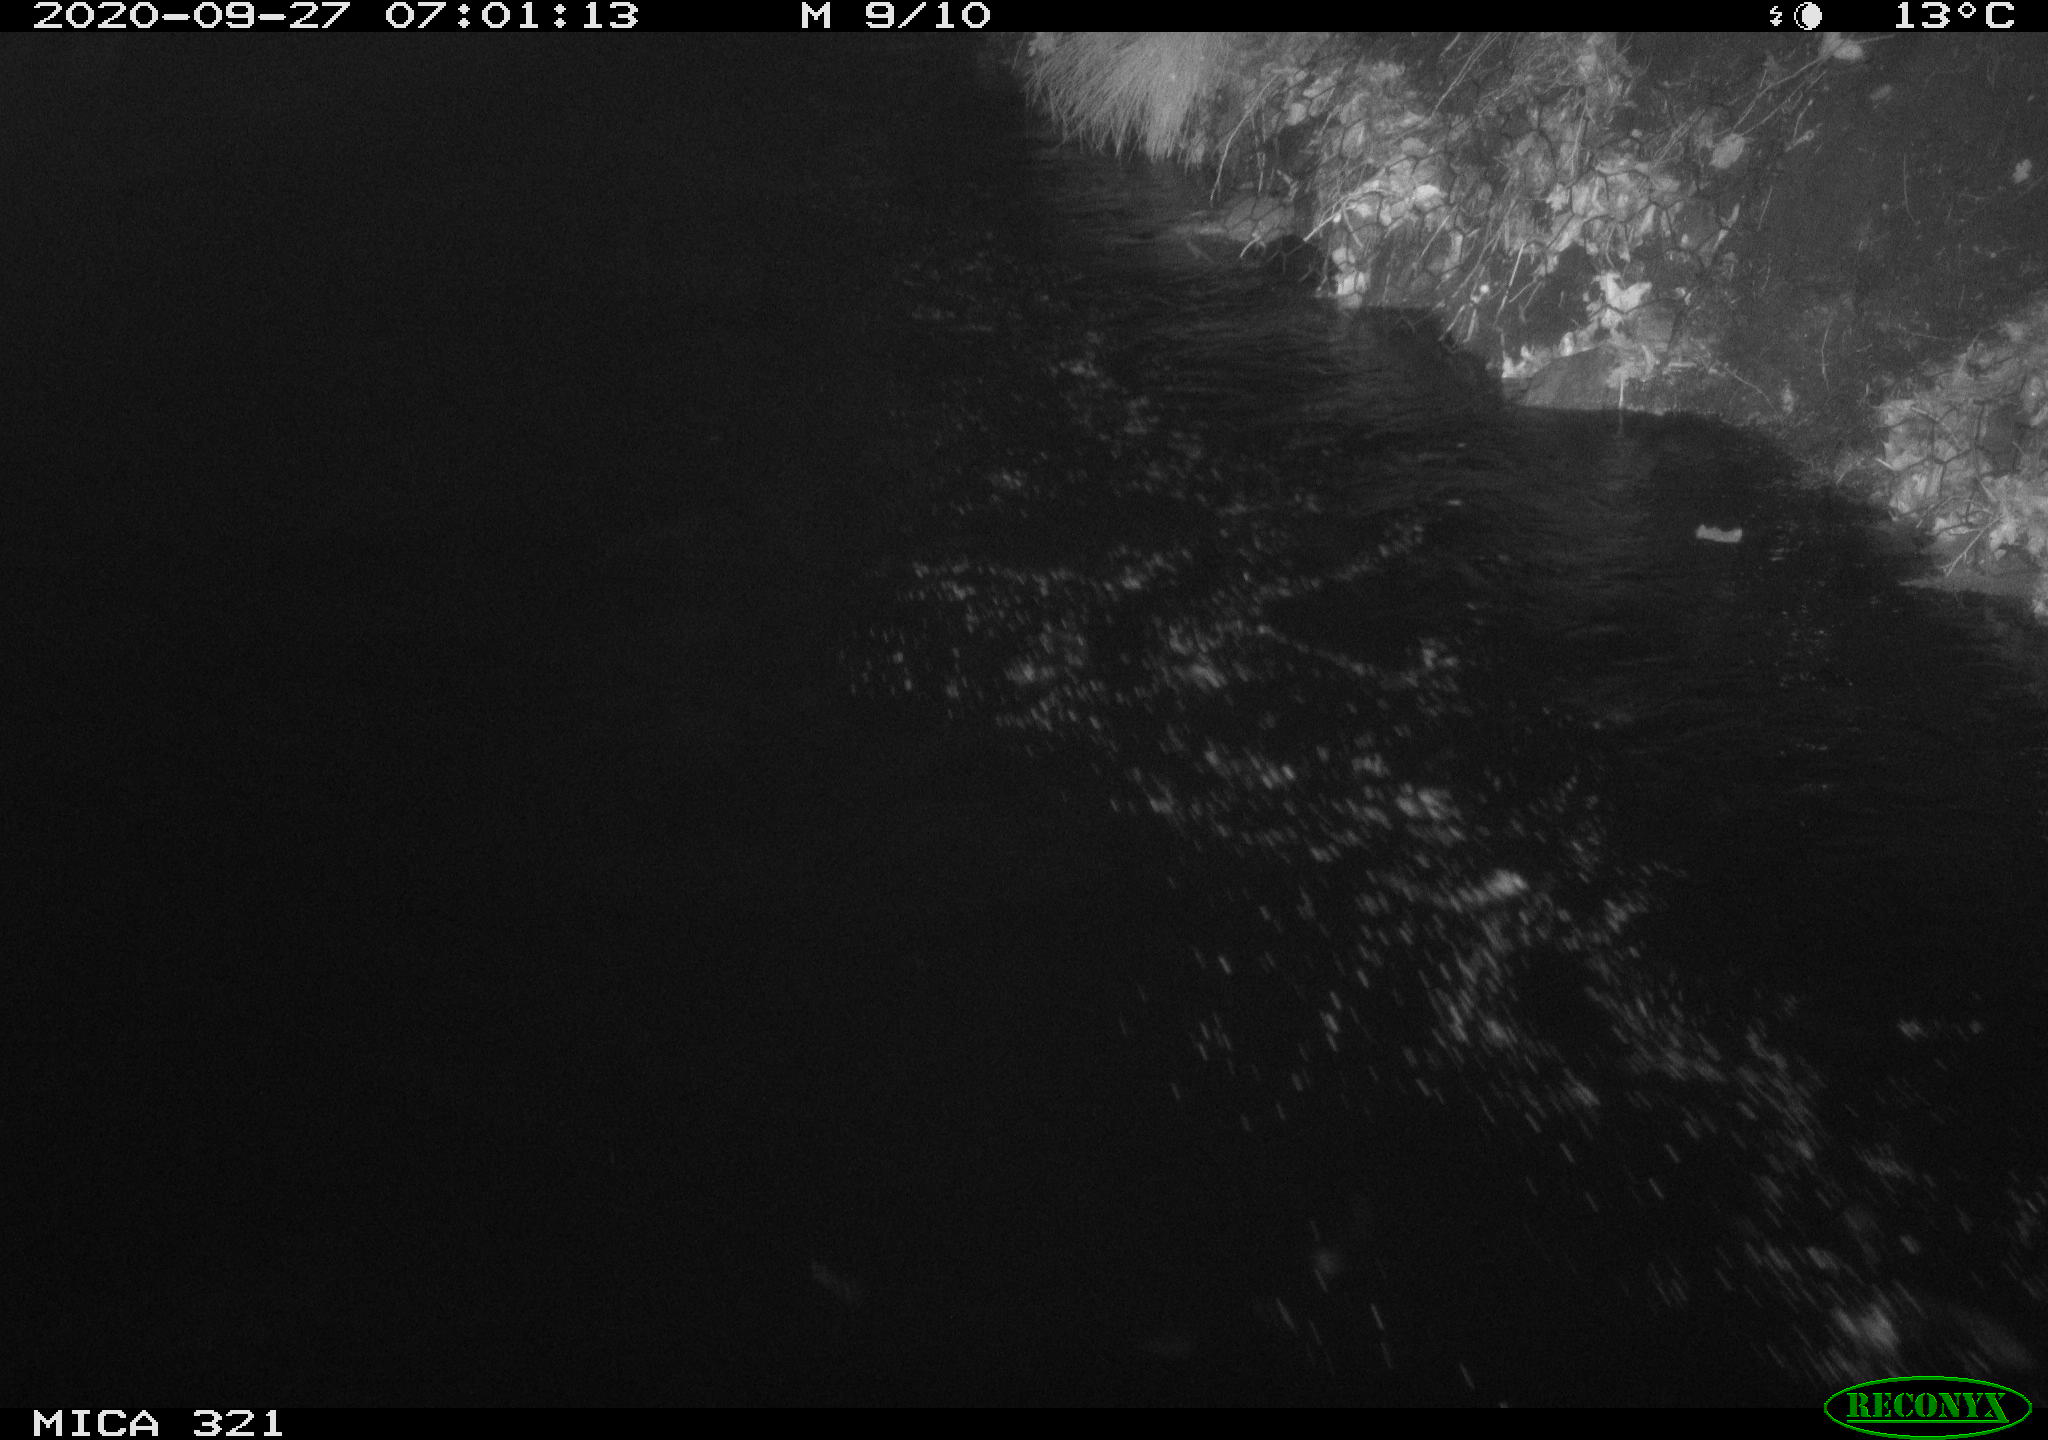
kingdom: Animalia
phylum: Chordata
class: Aves
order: Anseriformes
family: Anatidae
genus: Anas
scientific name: Anas platyrhynchos
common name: Mallard
